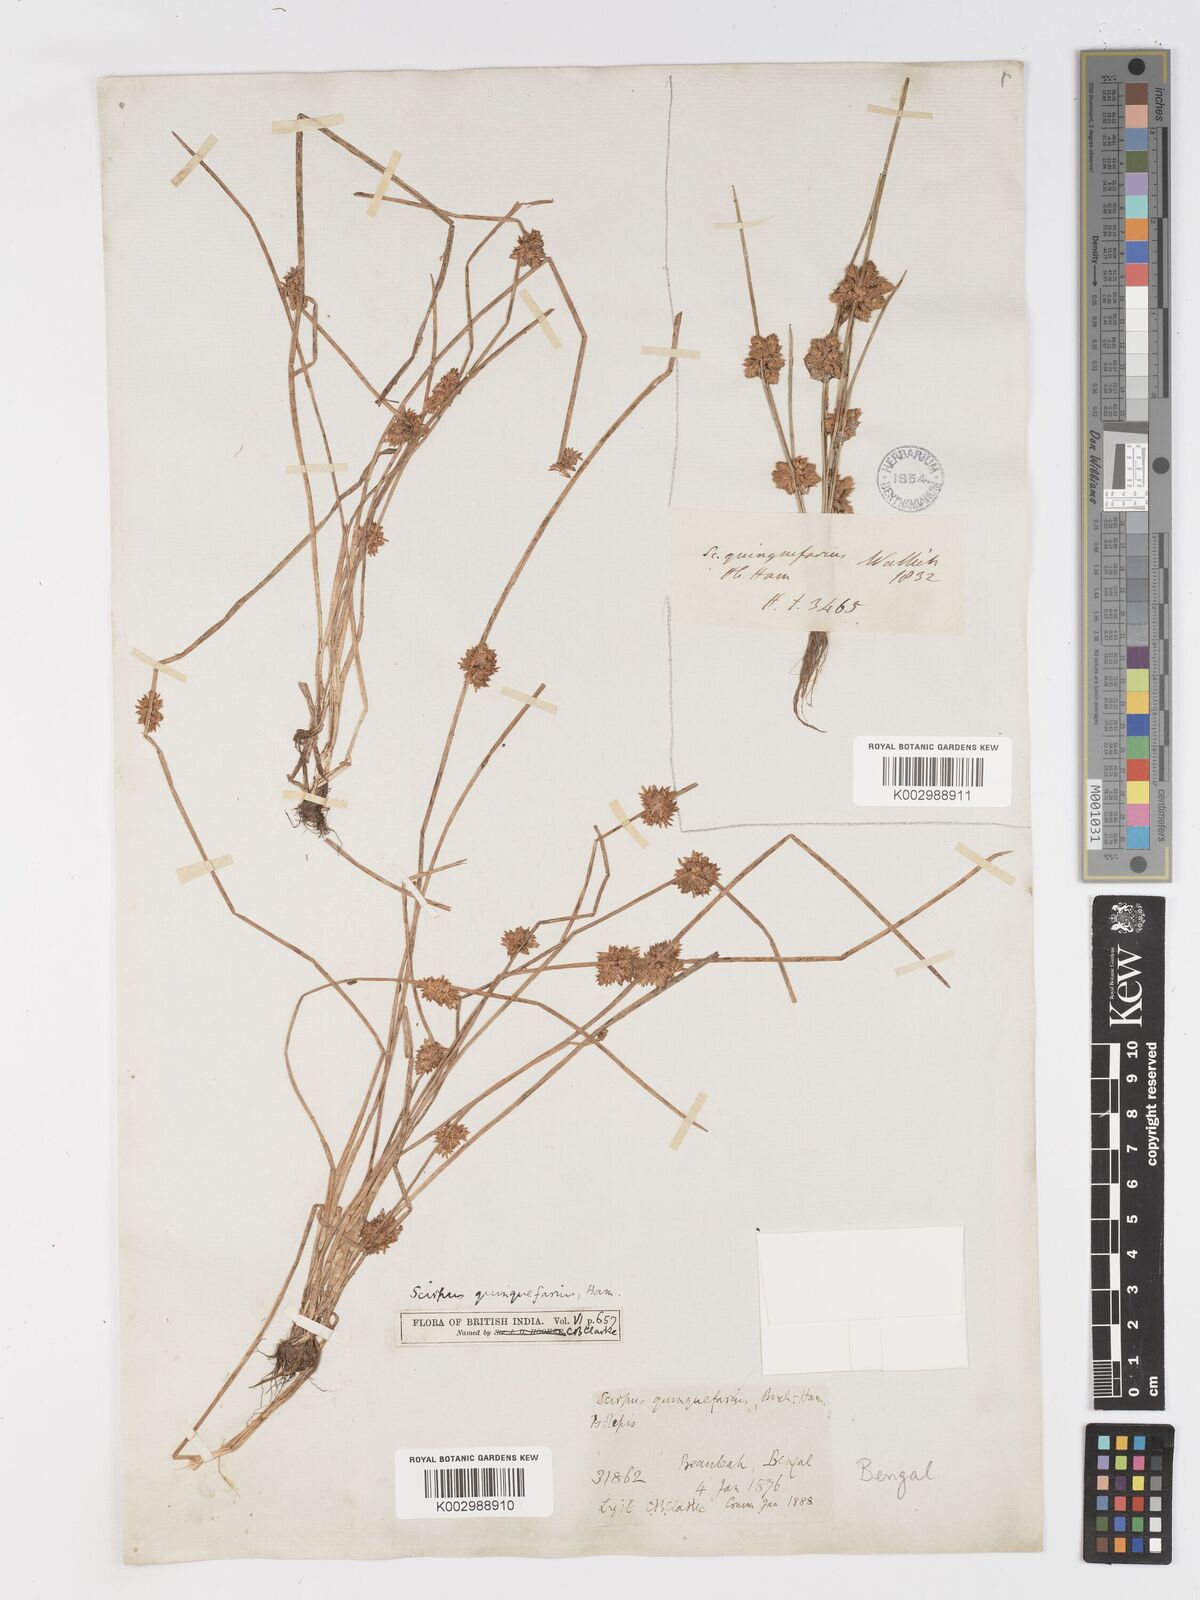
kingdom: Plantae
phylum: Tracheophyta
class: Liliopsida
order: Poales
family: Cyperaceae
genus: Schoenoplectiella
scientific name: Schoenoplectiella roylei
